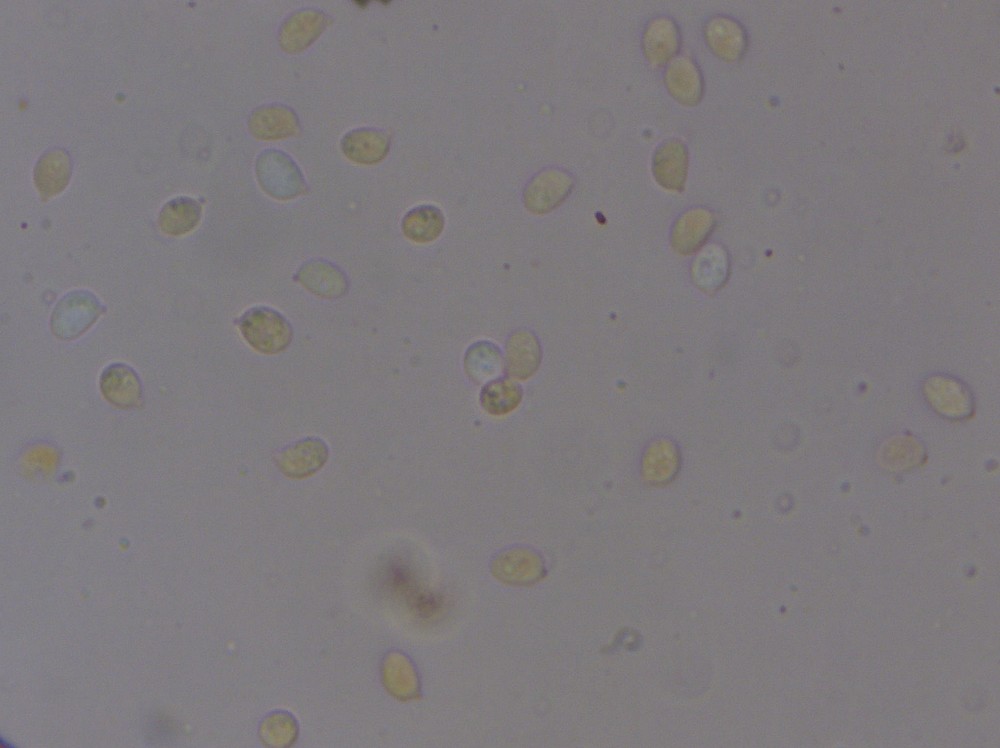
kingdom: Fungi
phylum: Basidiomycota
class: Agaricomycetes
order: Agaricales
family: Tricholomataceae
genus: Clitocybe
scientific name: Clitocybe
